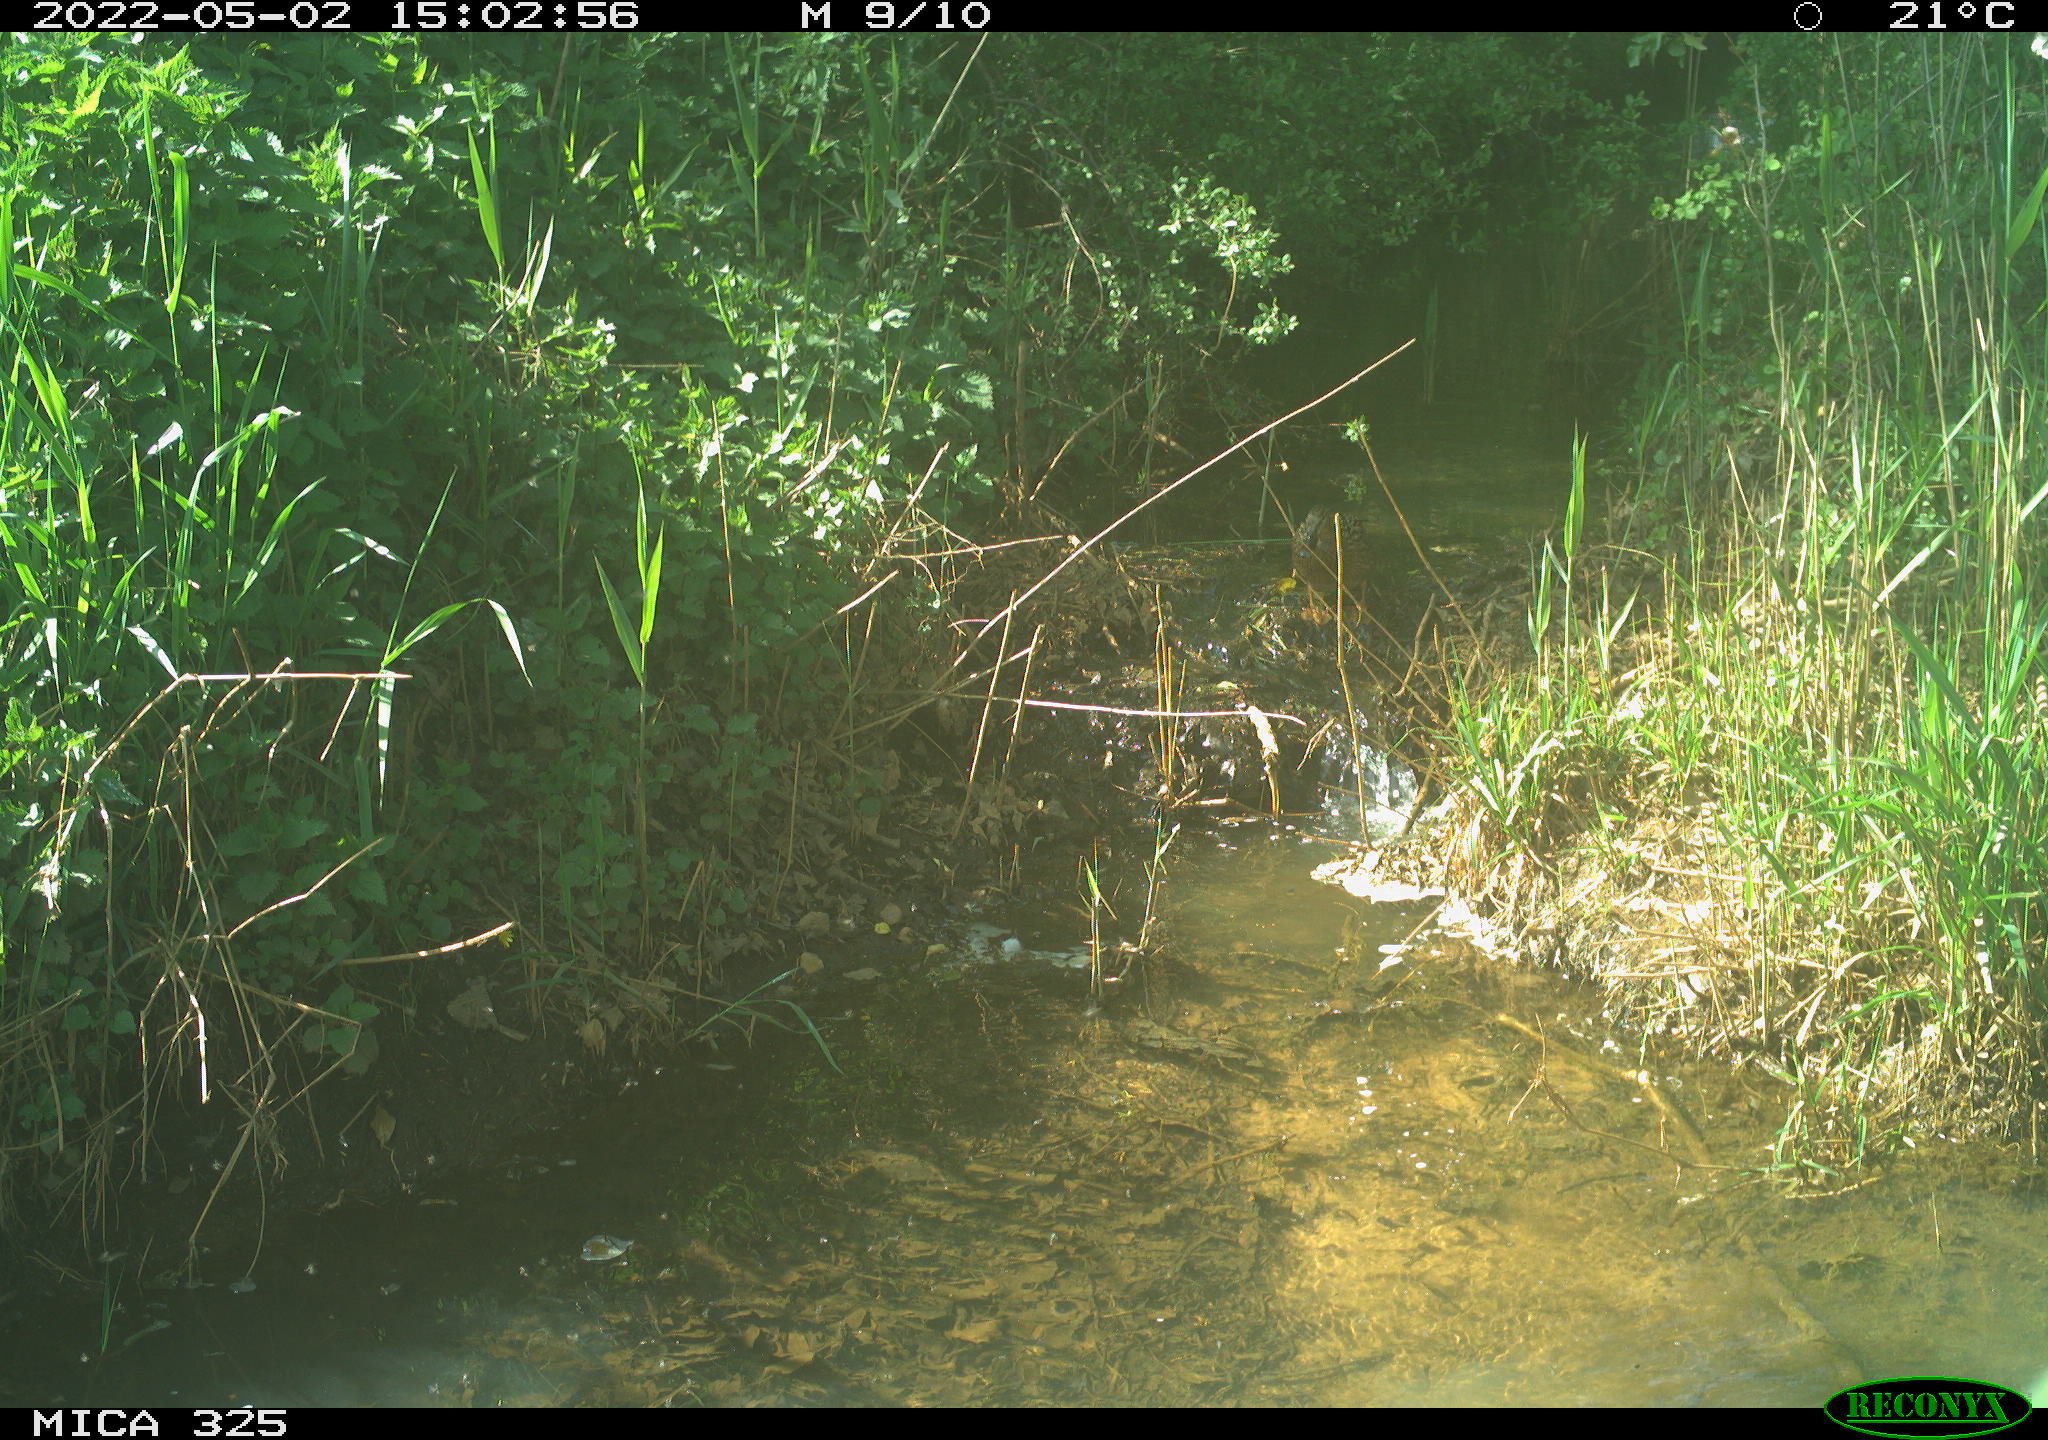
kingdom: Animalia
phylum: Chordata
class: Aves
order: Anseriformes
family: Anatidae
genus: Anas
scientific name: Anas platyrhynchos
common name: Mallard
